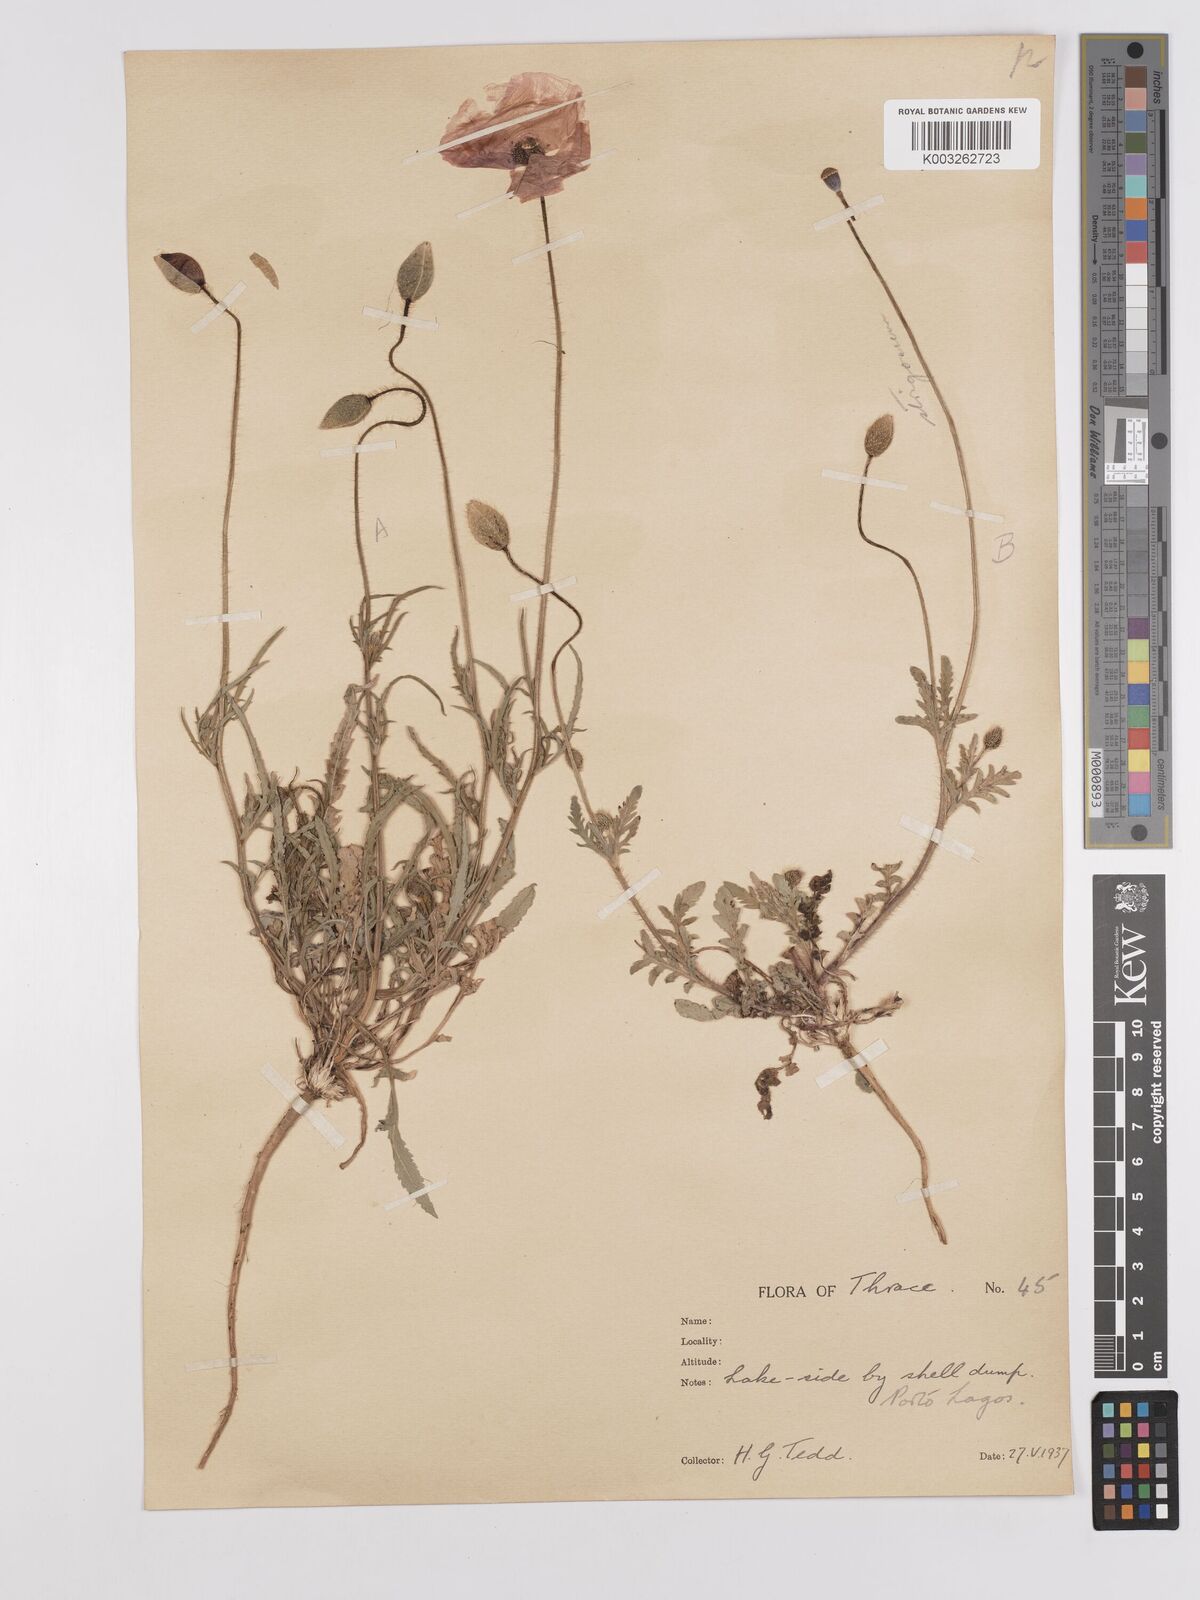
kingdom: Plantae
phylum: Tracheophyta
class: Magnoliopsida
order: Ranunculales
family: Papaveraceae
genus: Papaver
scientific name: Papaver
